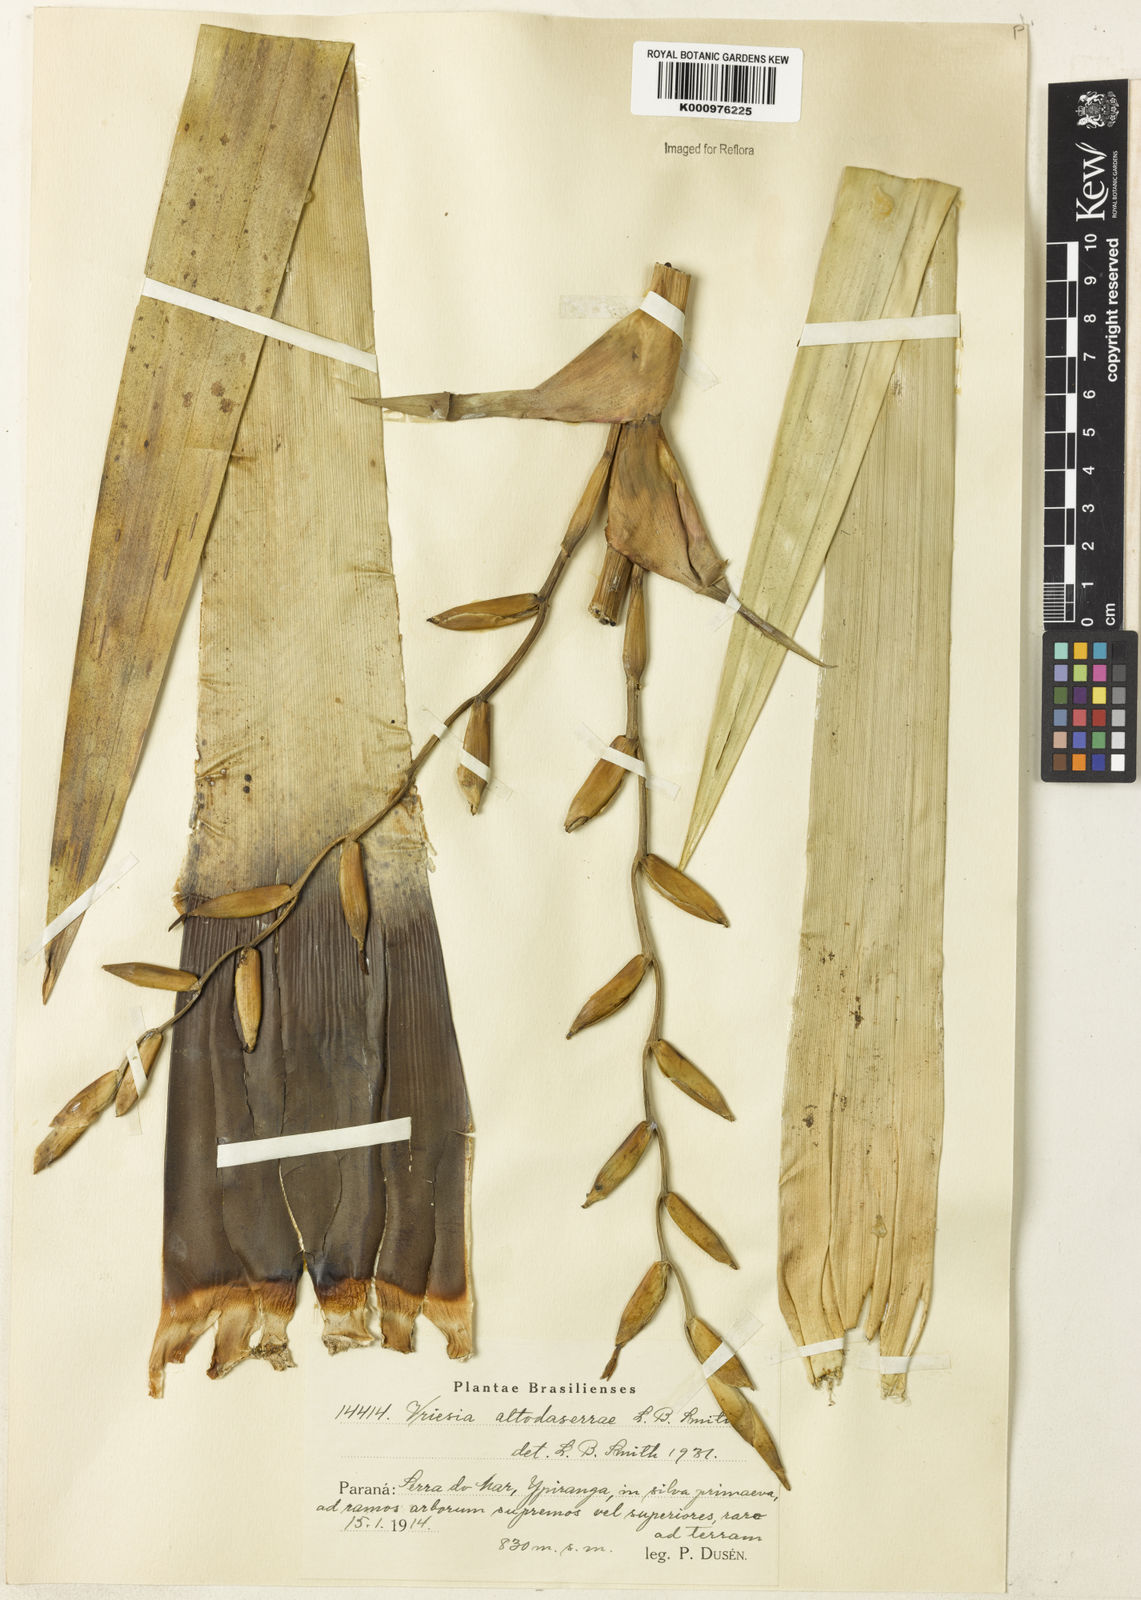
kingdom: Plantae
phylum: Tracheophyta
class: Liliopsida
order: Poales
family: Bromeliaceae
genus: Vriesea
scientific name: Vriesea altodaserrae
